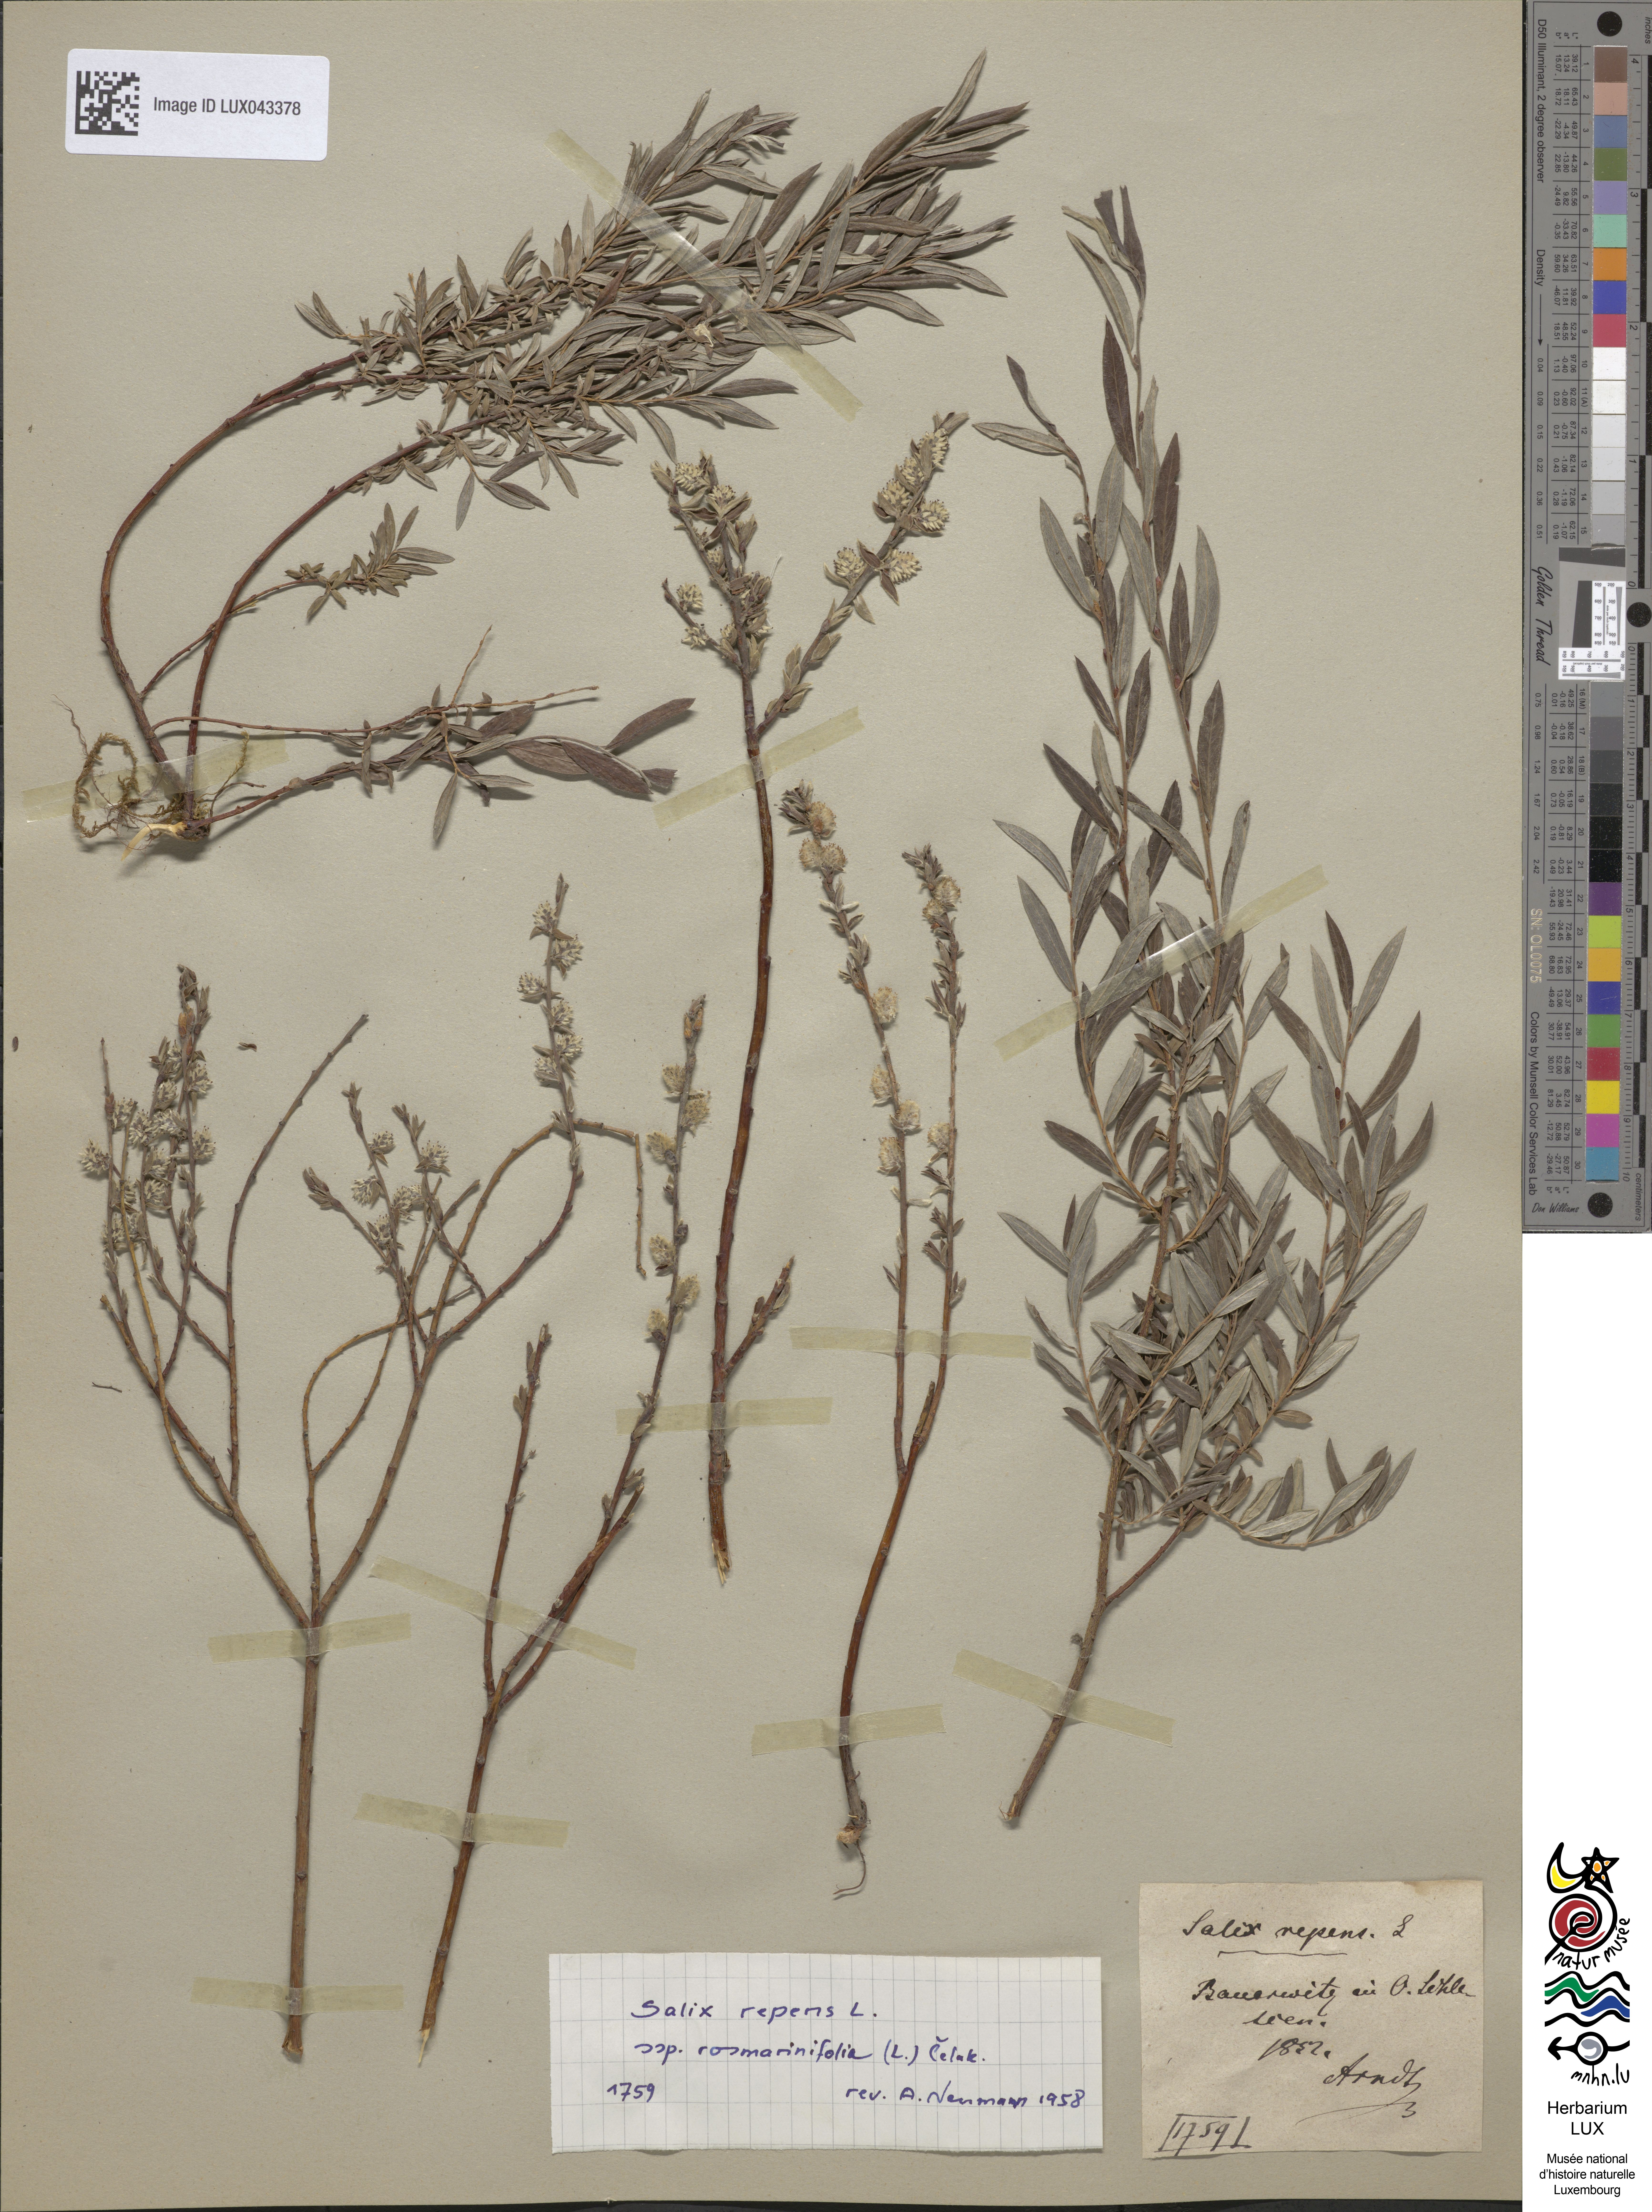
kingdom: Plantae
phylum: Tracheophyta
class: Magnoliopsida
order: Malpighiales
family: Salicaceae
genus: Salix
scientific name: Salix rosmarinifolia
